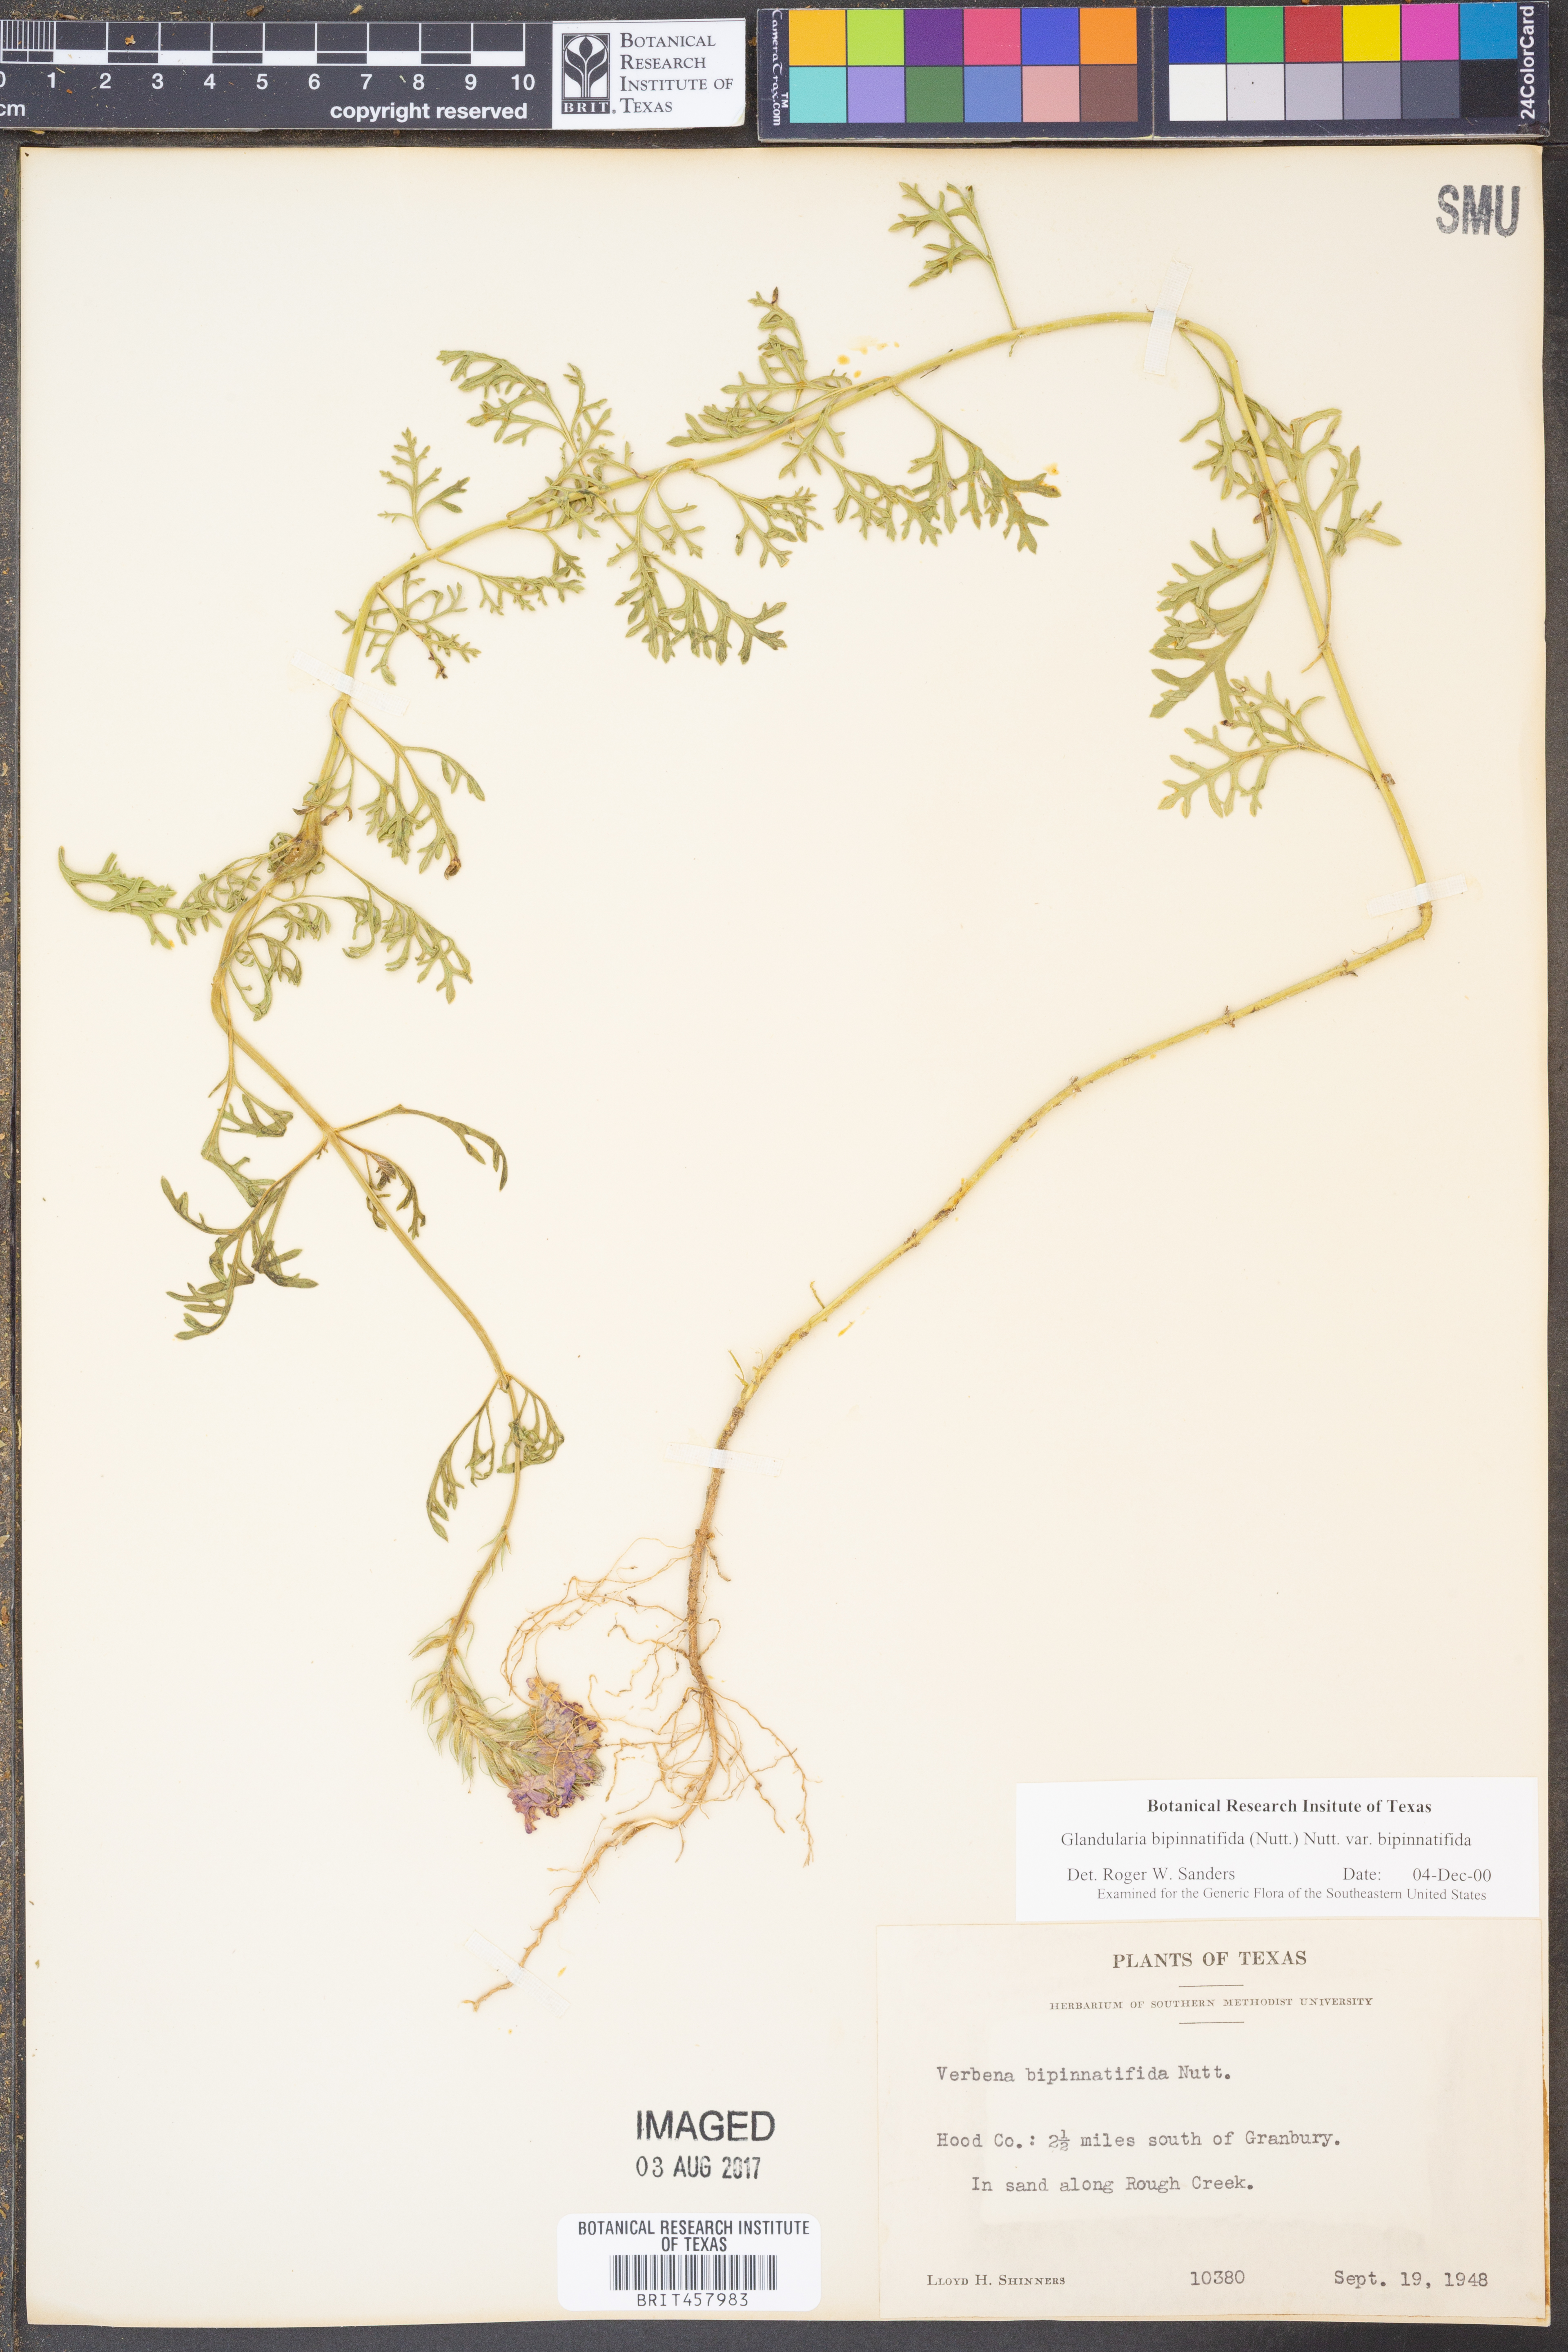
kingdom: Plantae
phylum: Tracheophyta
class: Magnoliopsida
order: Lamiales
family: Verbenaceae
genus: Verbena
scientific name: Verbena bipinnatifida
